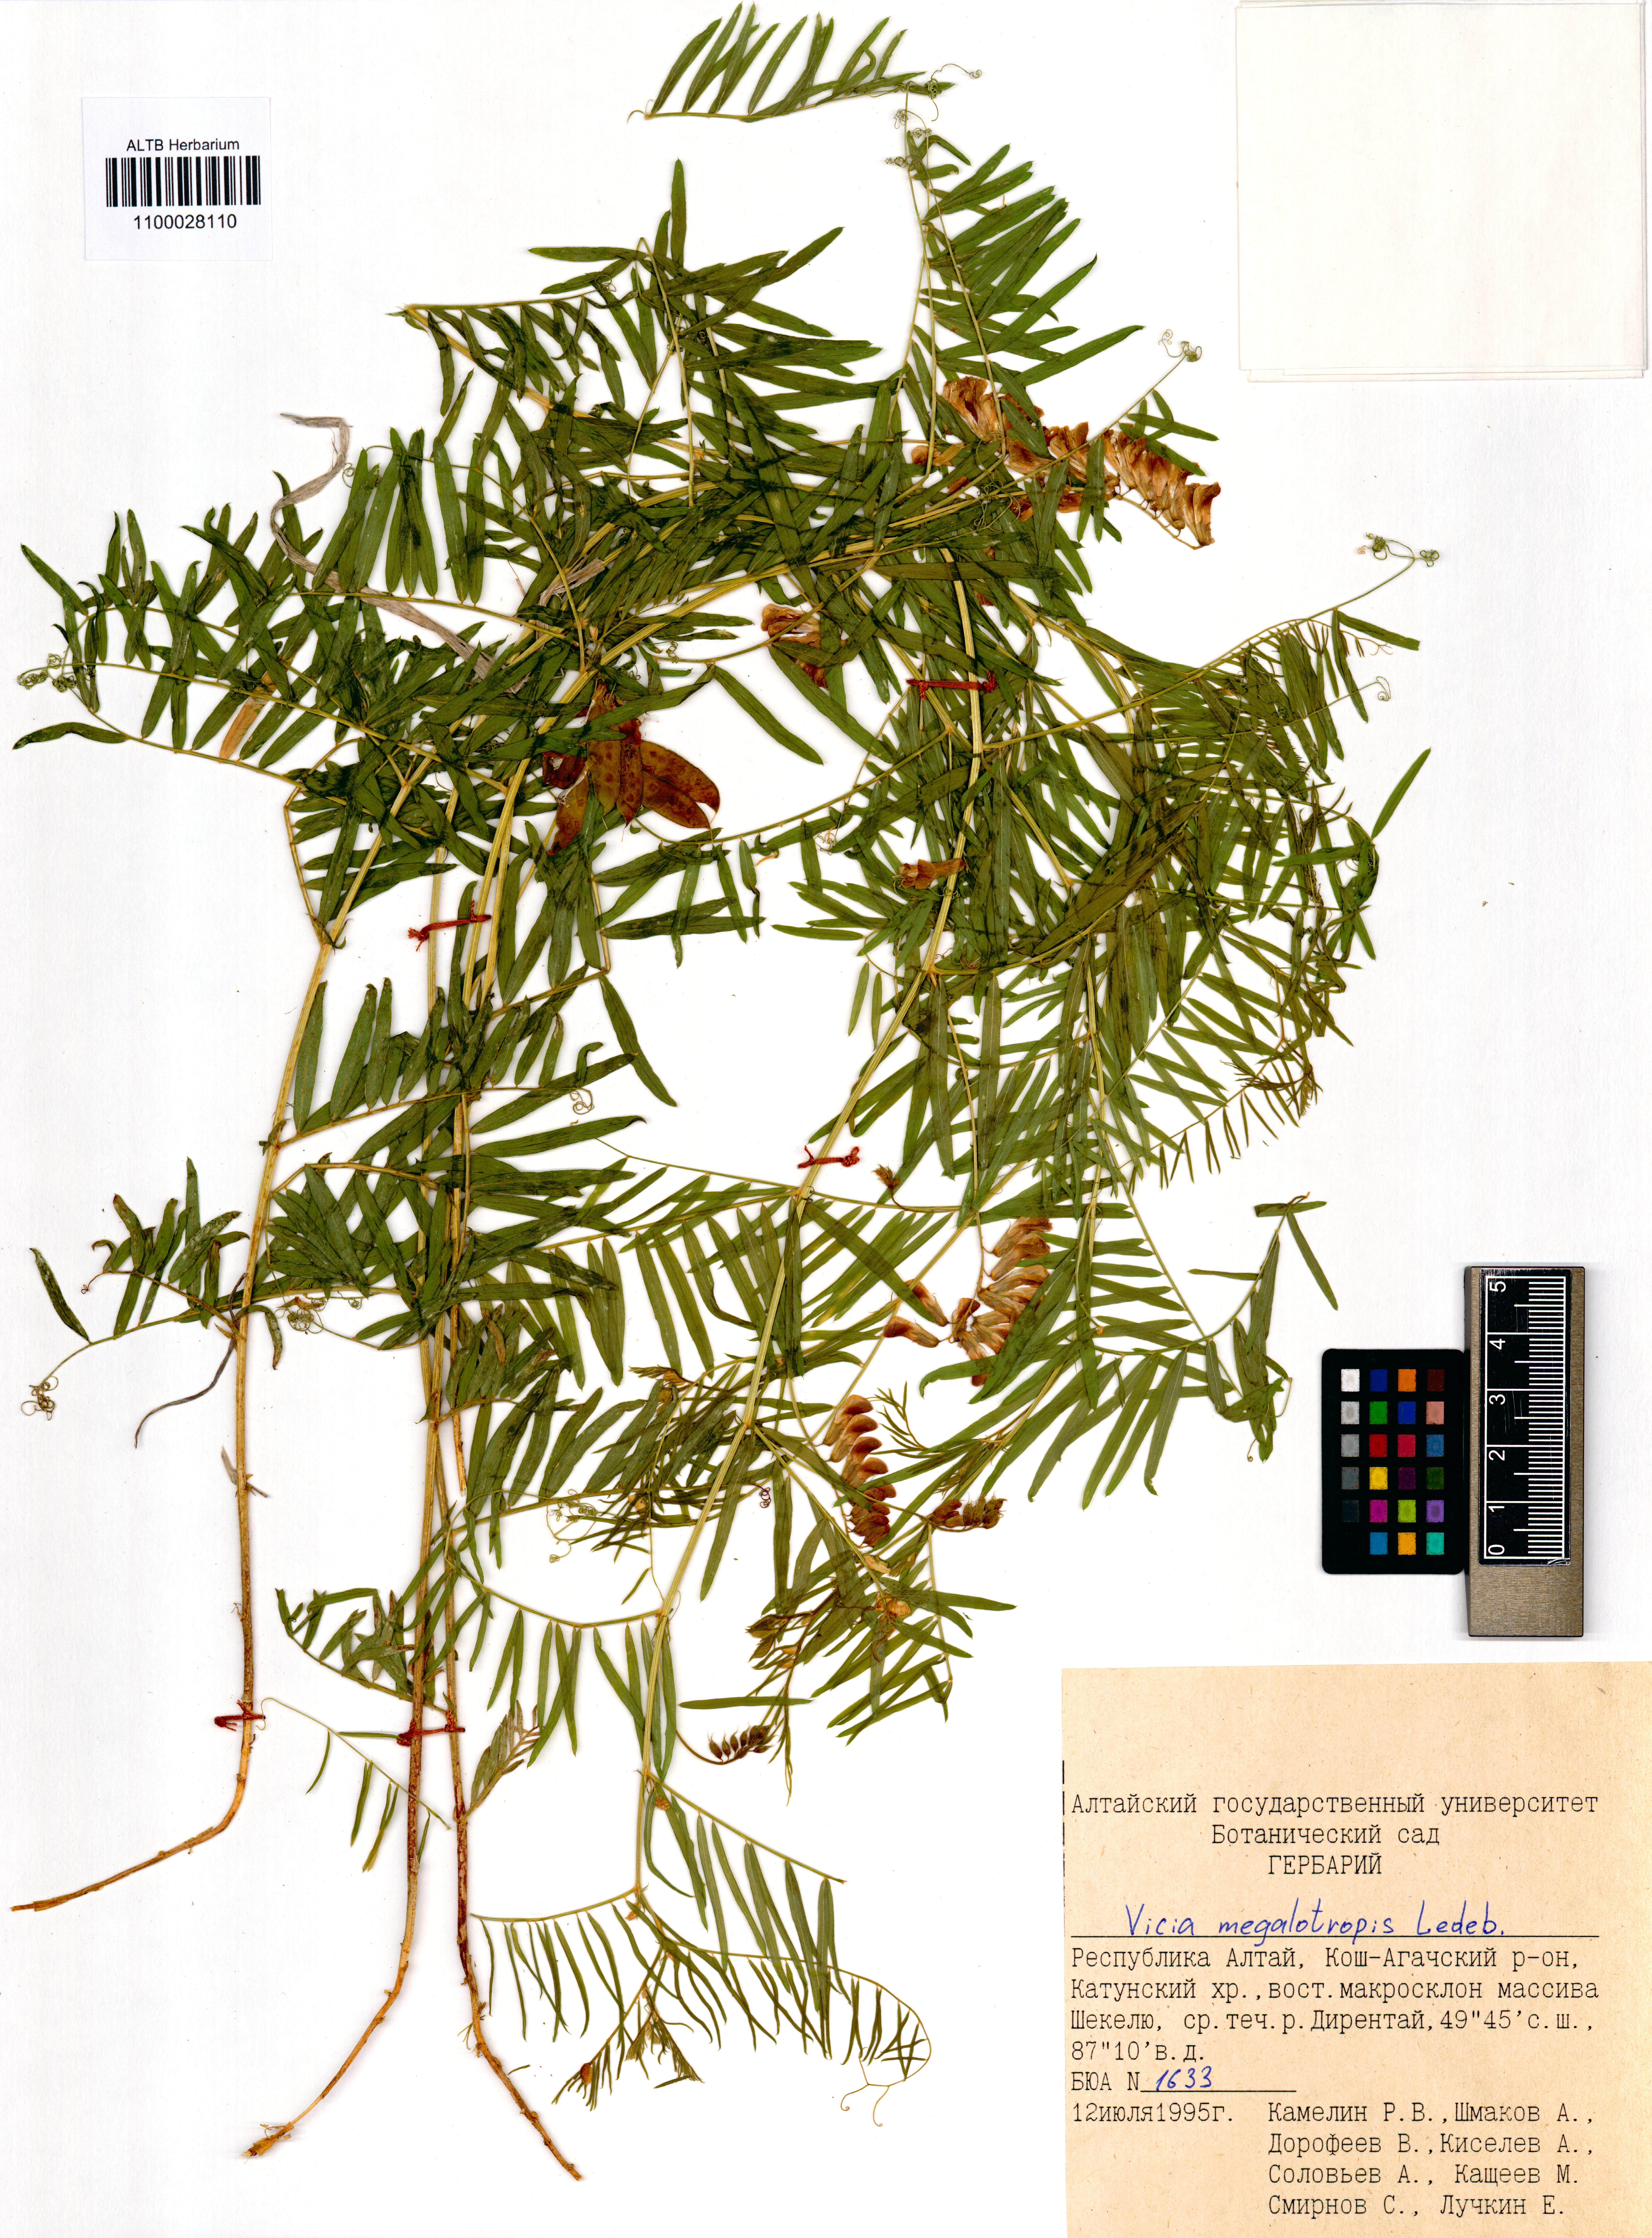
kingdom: Plantae
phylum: Tracheophyta
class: Magnoliopsida
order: Fabales
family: Fabaceae
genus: Vicia
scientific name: Vicia megalotropis
